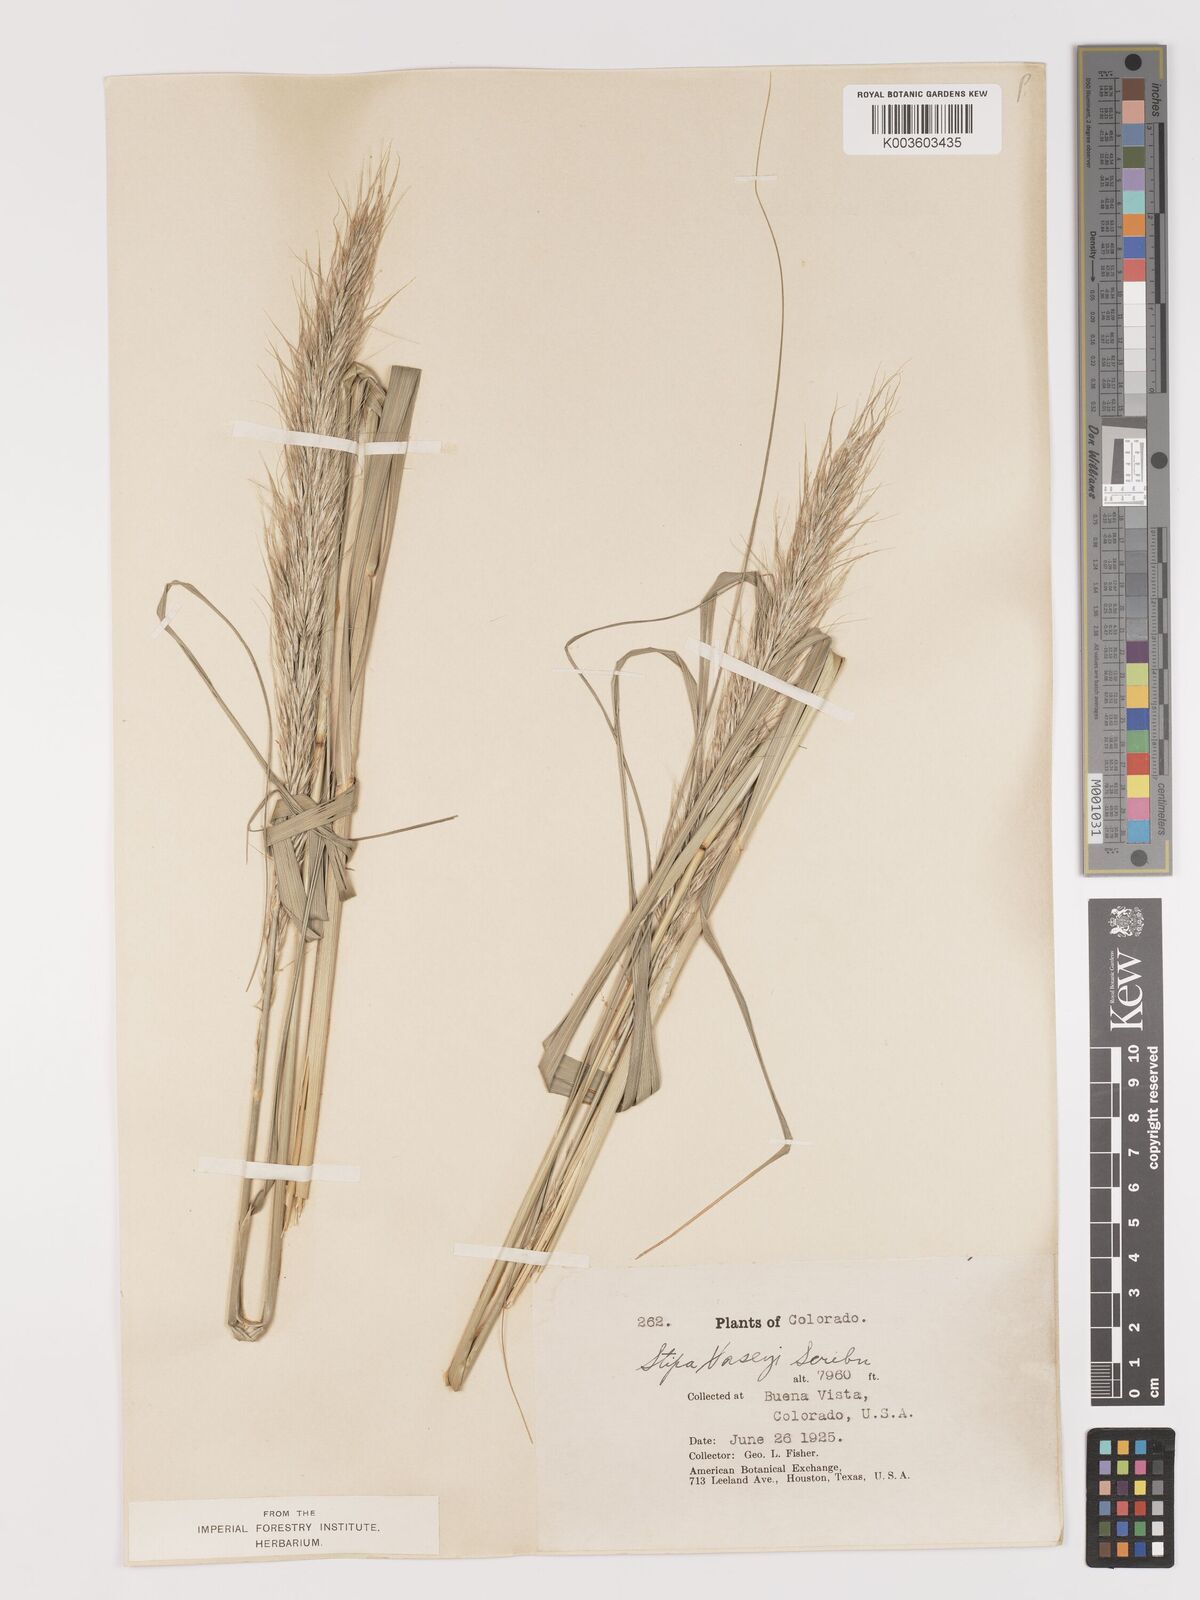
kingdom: Plantae
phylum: Tracheophyta
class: Liliopsida
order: Poales
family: Poaceae
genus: Eriocoma
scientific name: Eriocoma robusta
